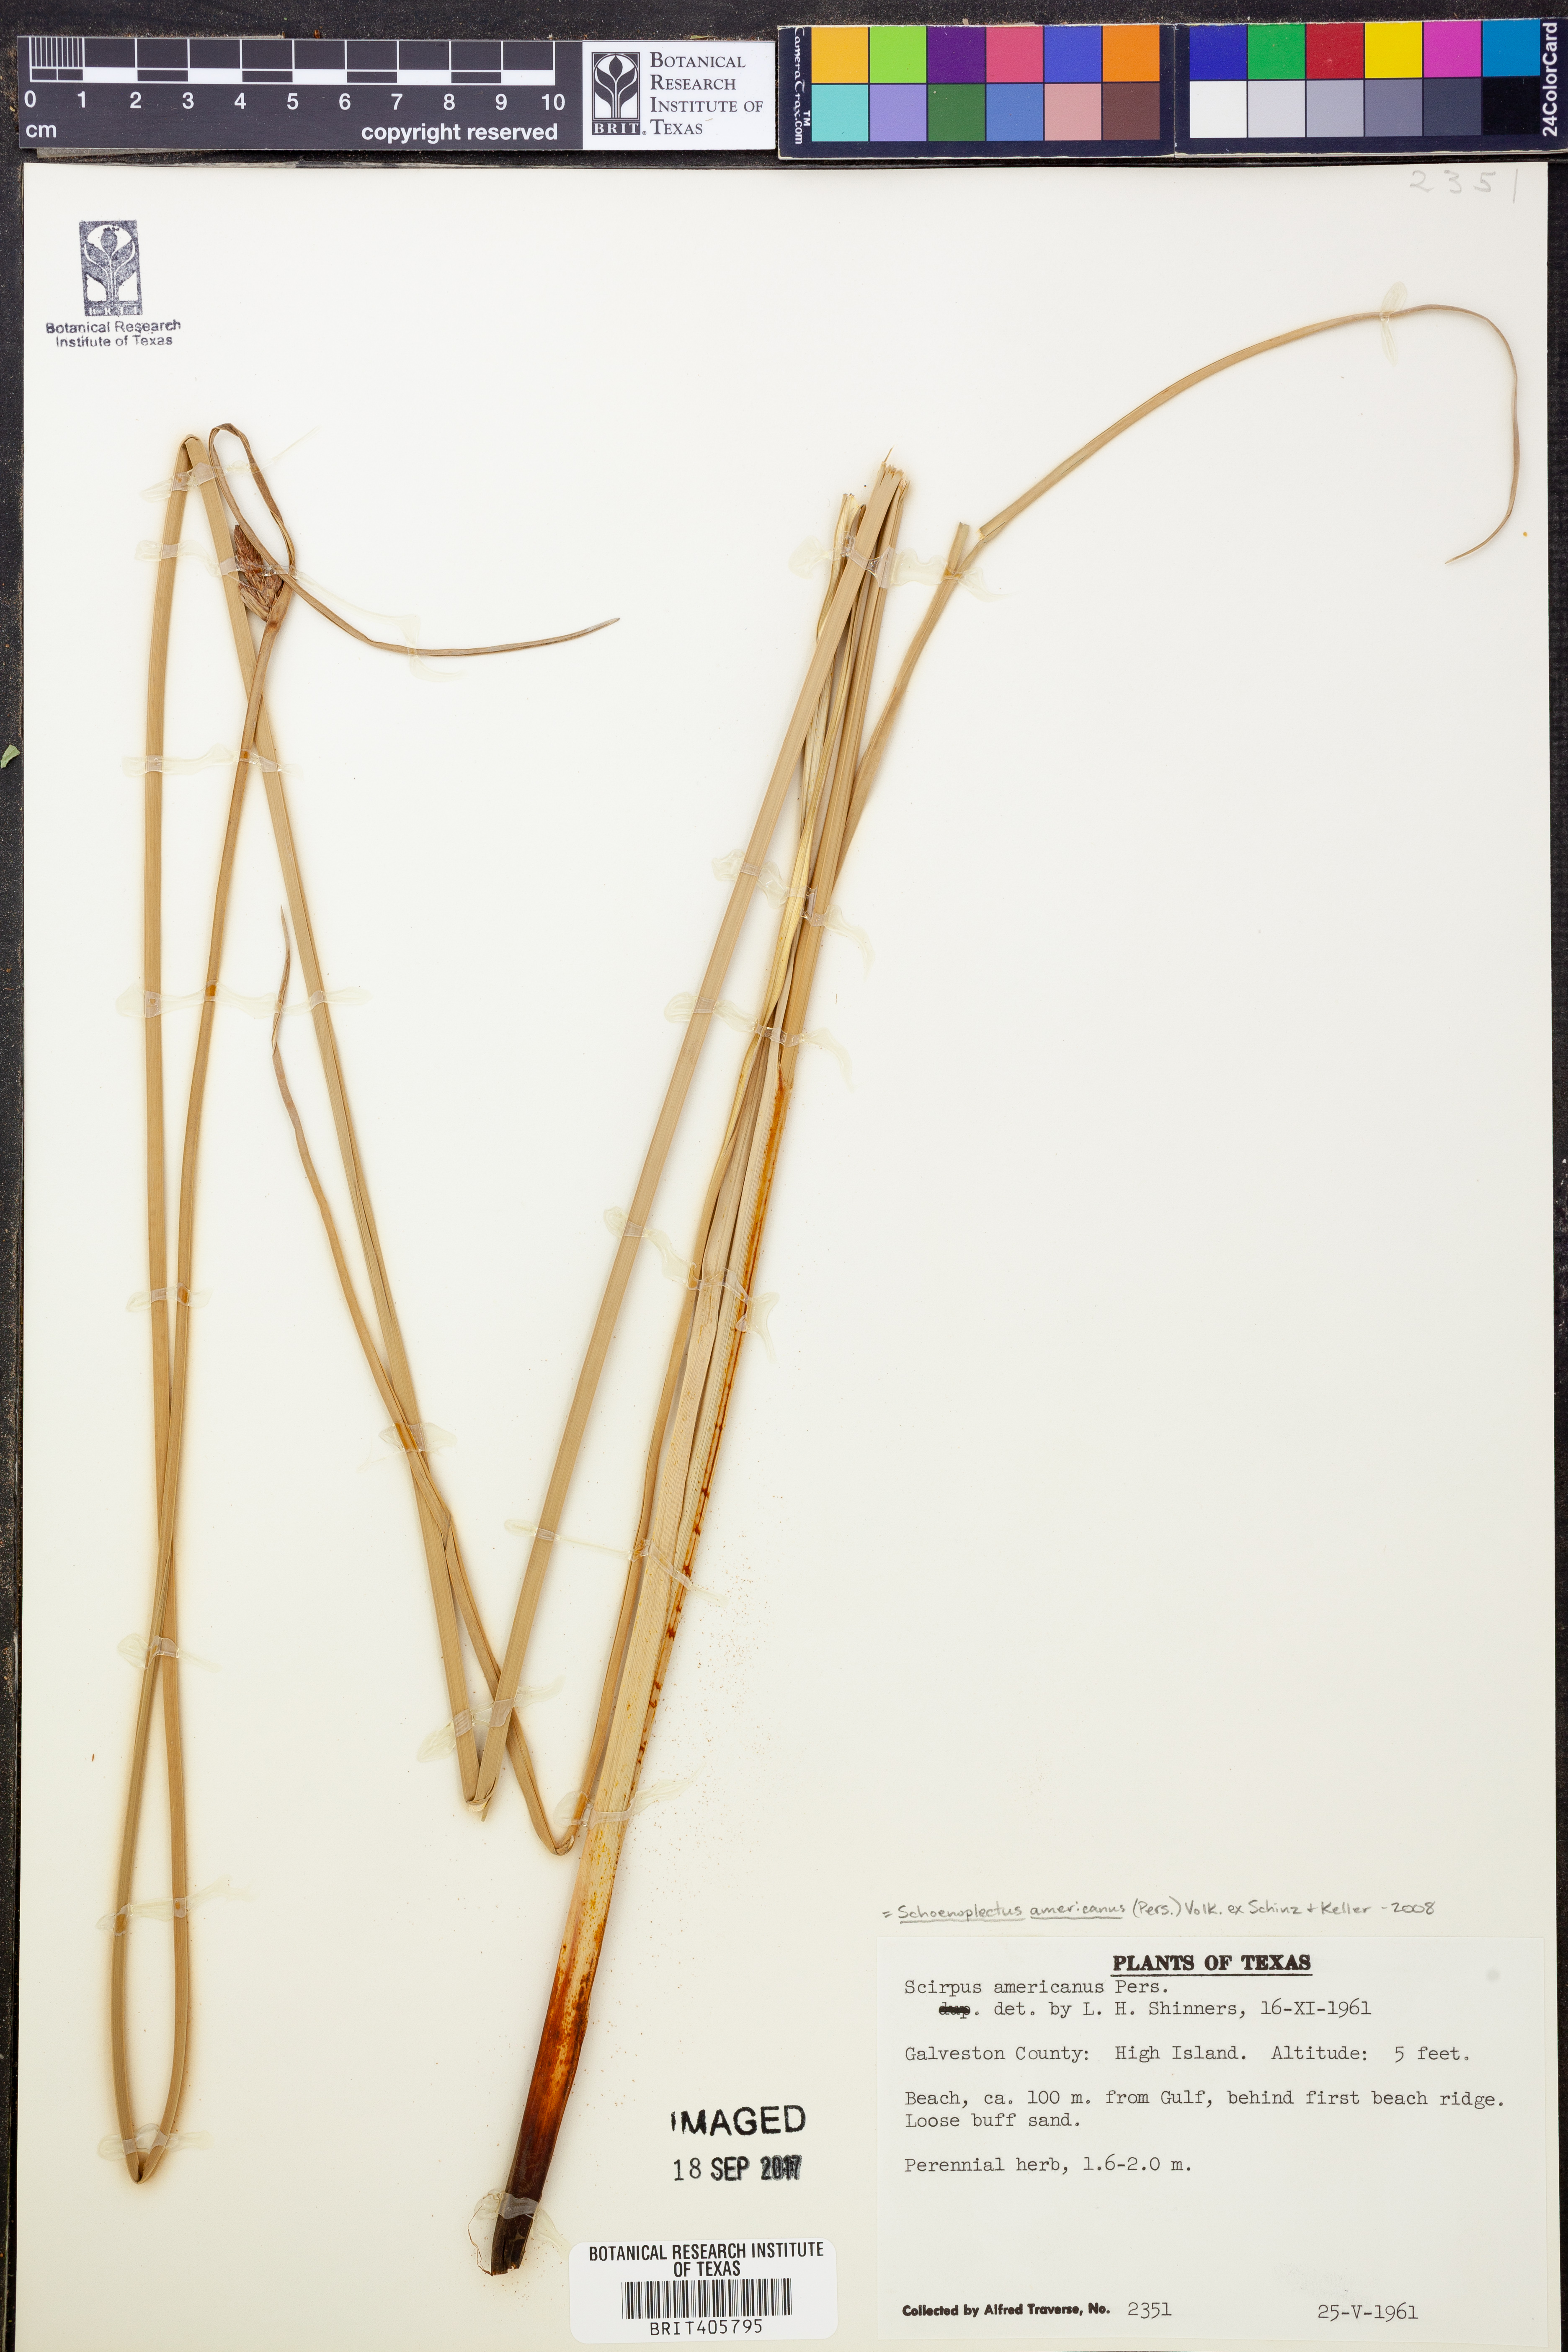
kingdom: Plantae
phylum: Tracheophyta
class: Liliopsida
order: Poales
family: Cyperaceae
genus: Schoenoplectus
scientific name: Schoenoplectus americanus
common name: American three-square bulrush
